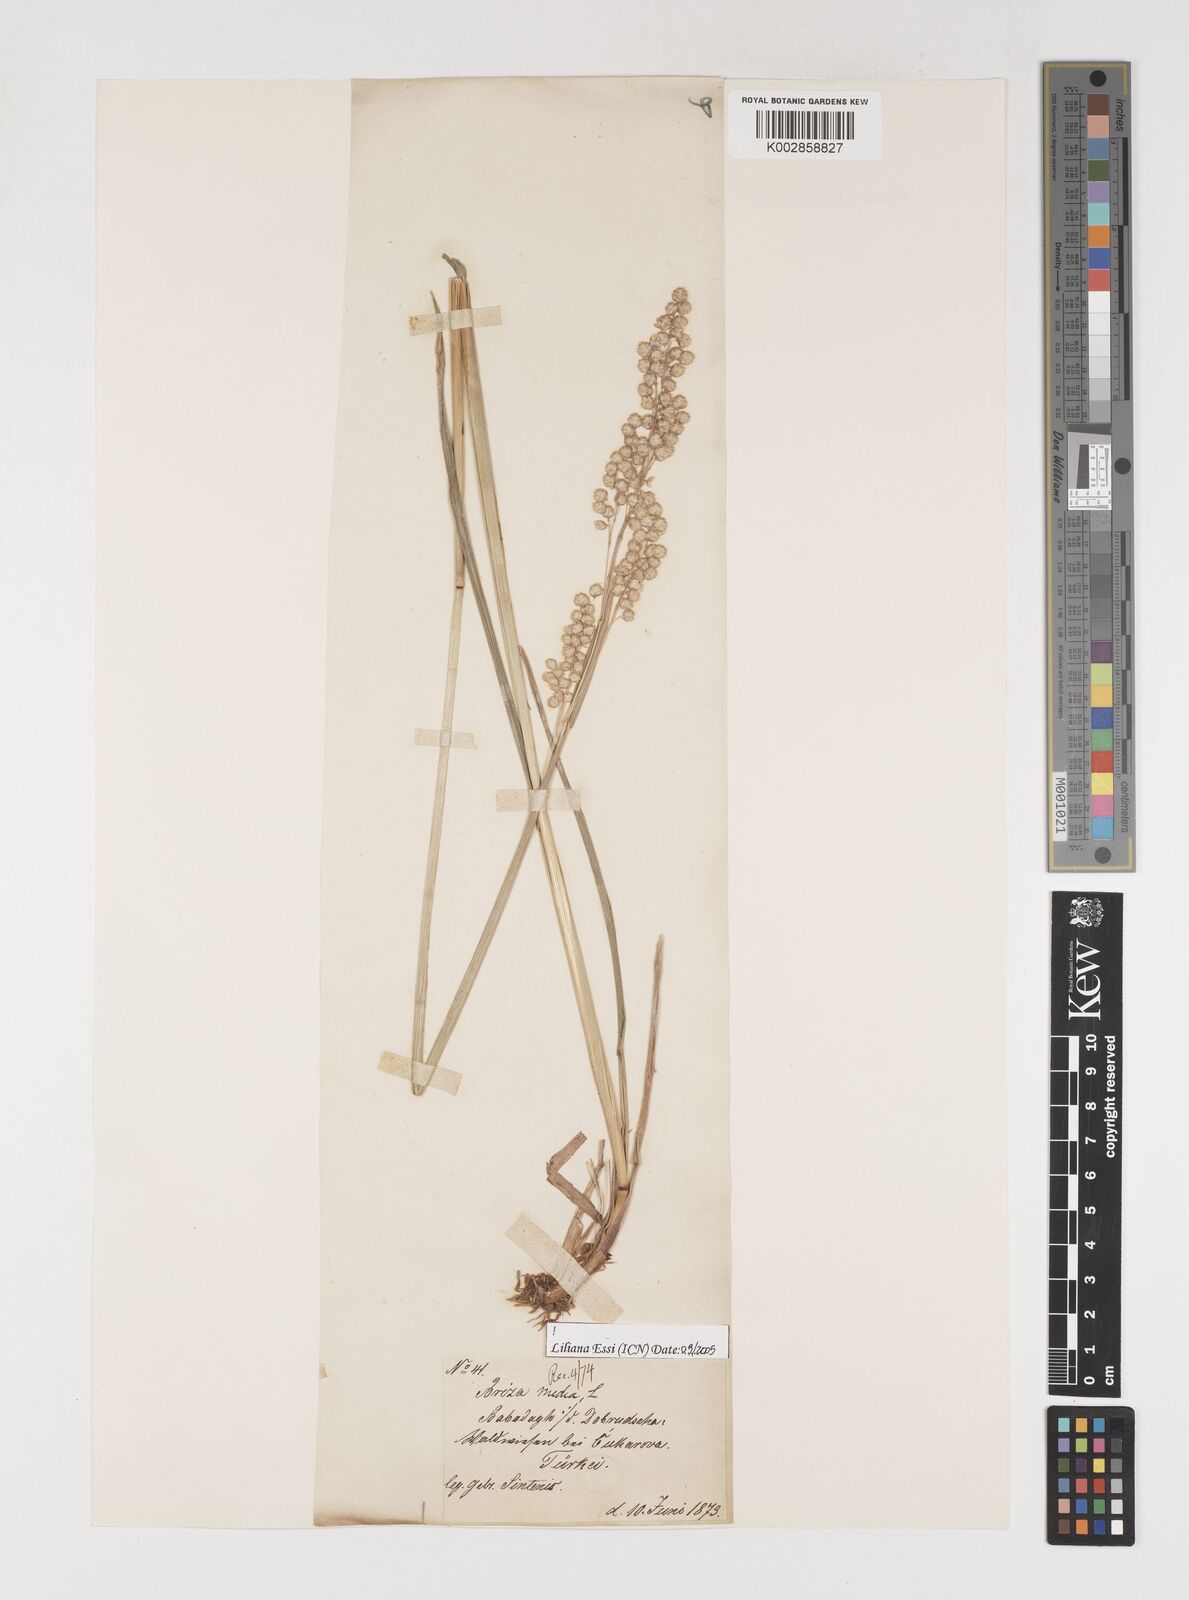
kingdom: Plantae
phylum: Tracheophyta
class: Liliopsida
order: Poales
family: Poaceae
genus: Briza
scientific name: Briza media
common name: Quaking grass
